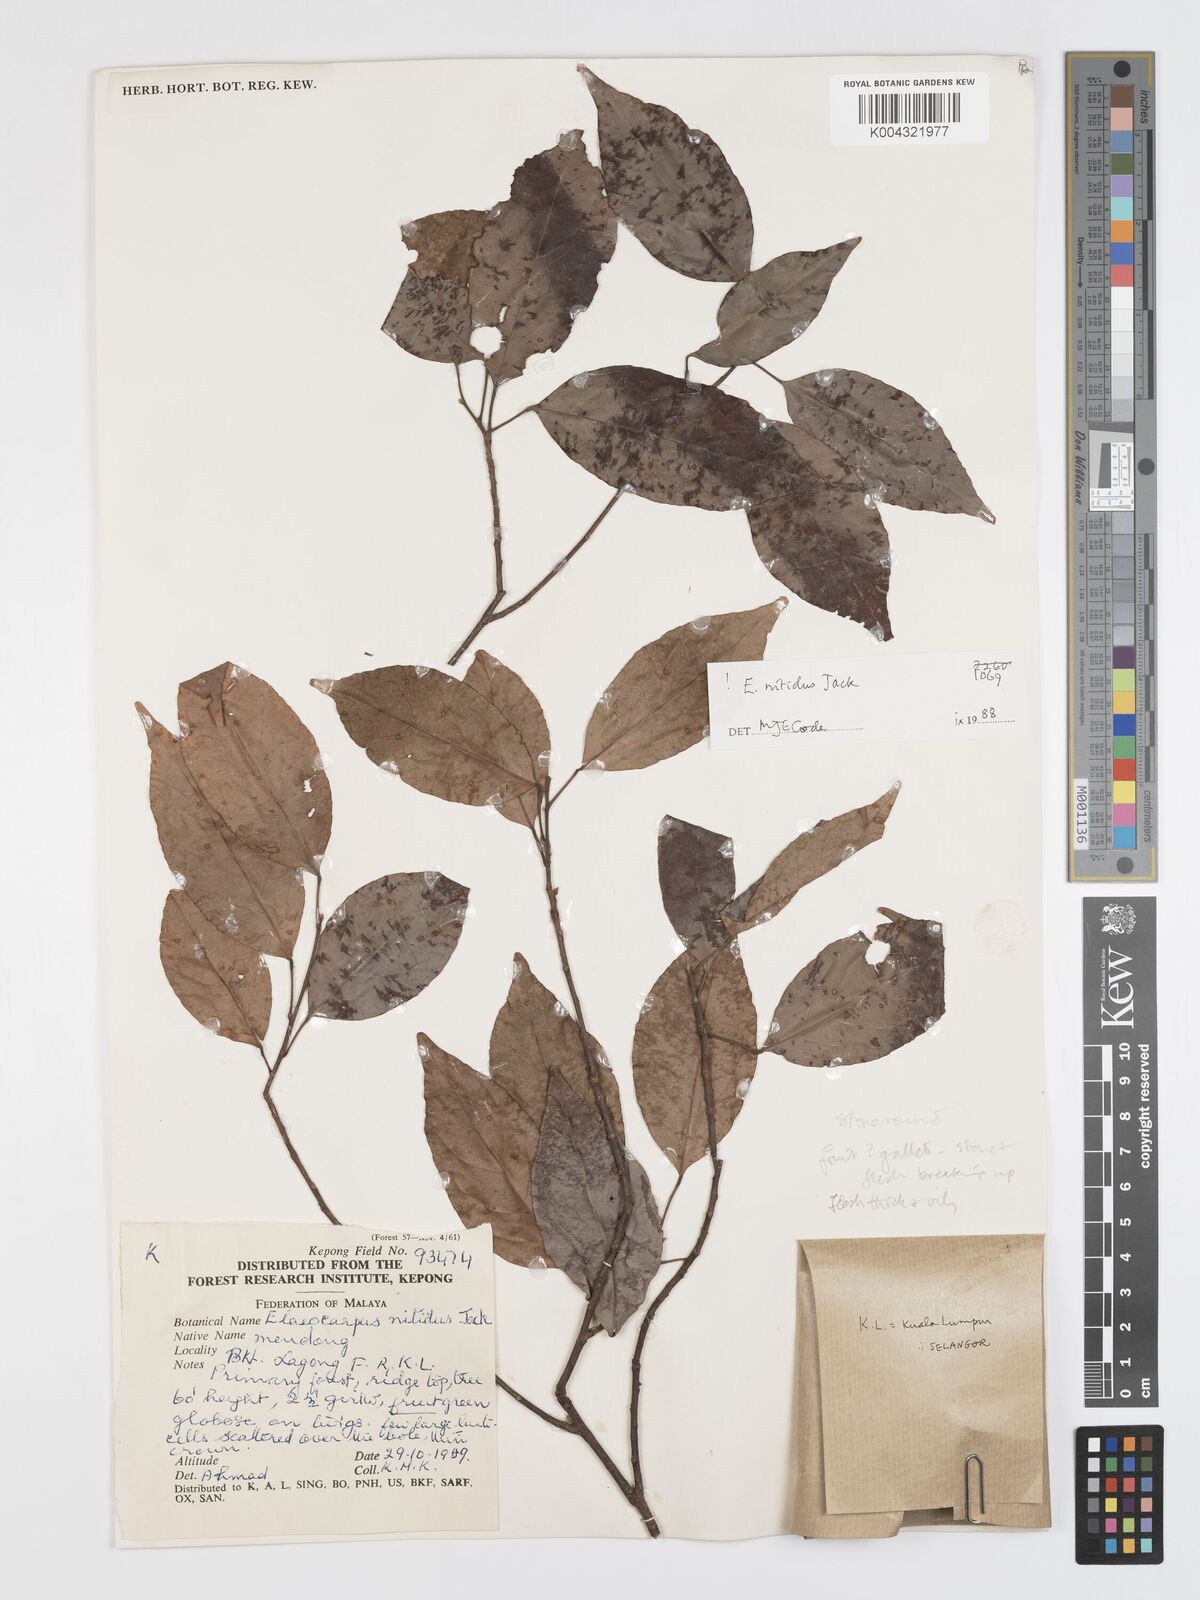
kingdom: Plantae
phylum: Tracheophyta
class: Magnoliopsida
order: Oxalidales
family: Elaeocarpaceae
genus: Elaeocarpus
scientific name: Elaeocarpus nitidus
